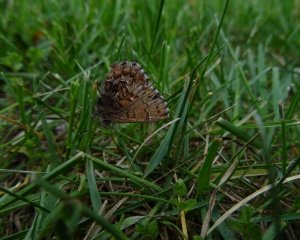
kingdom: Animalia
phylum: Arthropoda
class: Insecta
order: Lepidoptera
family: Lycaenidae
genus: Incisalia
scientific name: Incisalia niphon
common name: Eastern Pine Elfin
